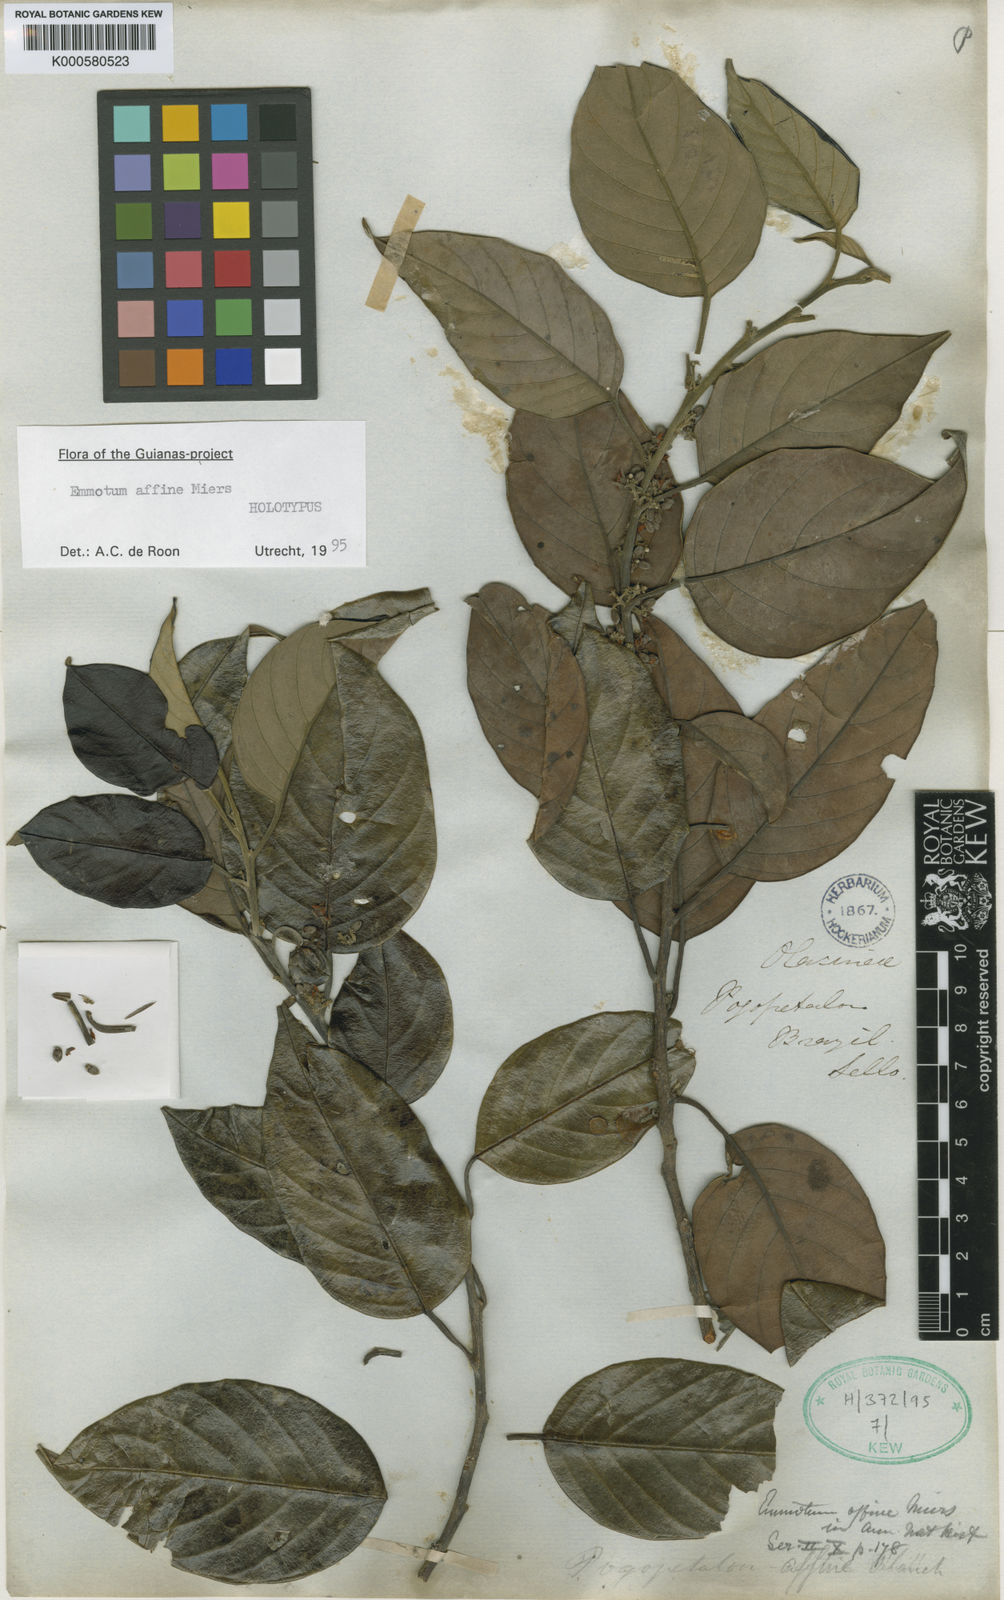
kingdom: Plantae
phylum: Tracheophyta
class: Magnoliopsida
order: Metteniusales
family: Metteniusaceae
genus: Emmotum
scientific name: Emmotum affine
